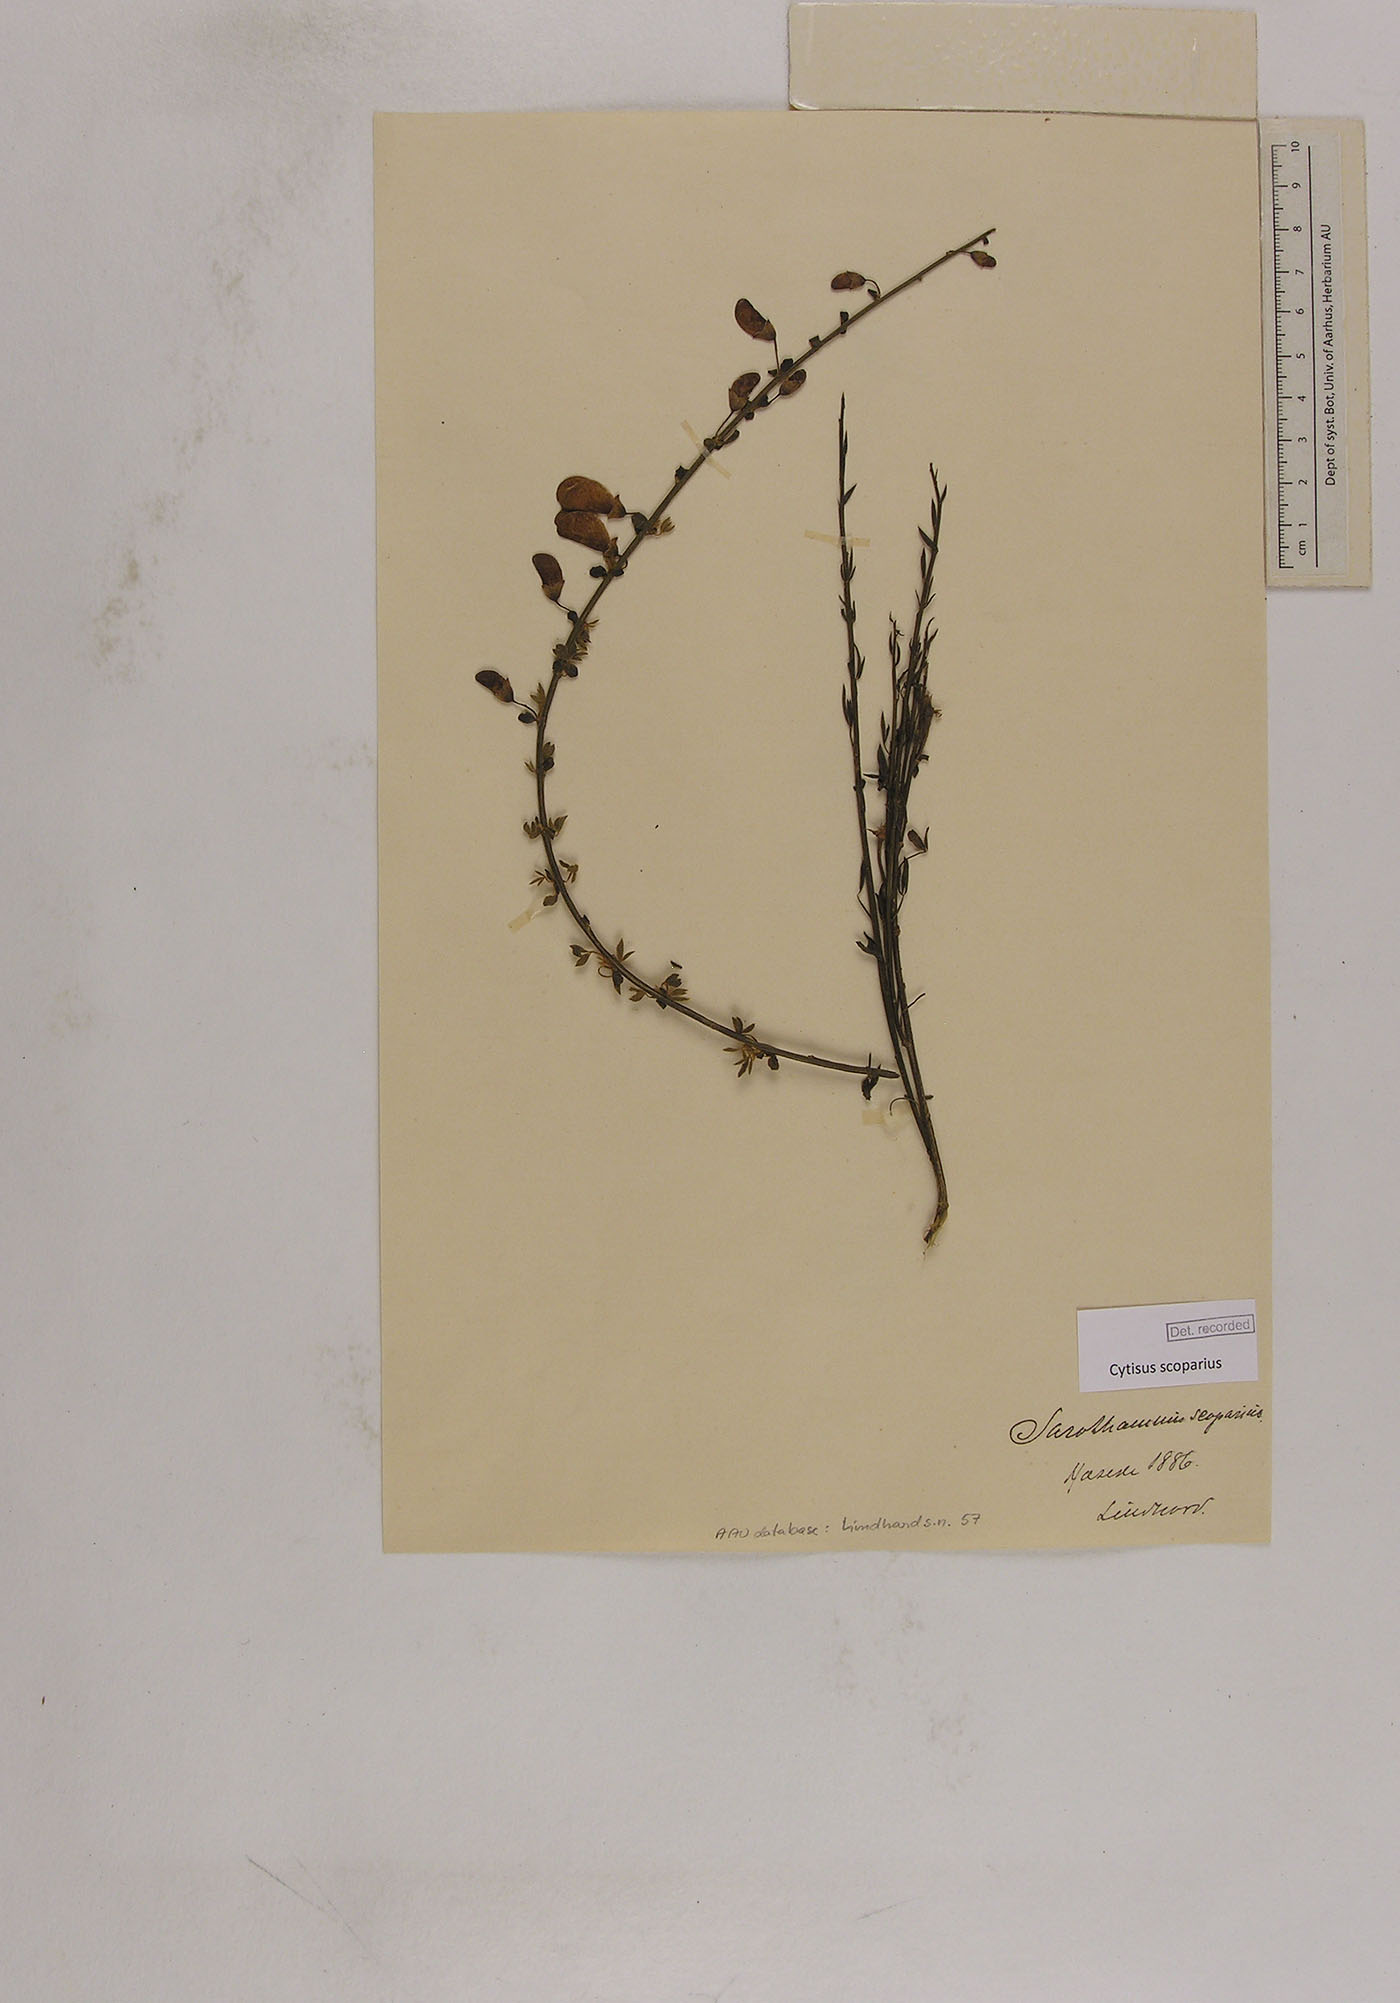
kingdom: Plantae
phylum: Tracheophyta
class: Magnoliopsida
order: Fabales
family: Fabaceae
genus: Cytisus
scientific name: Cytisus scoparius
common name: Scotch broom
